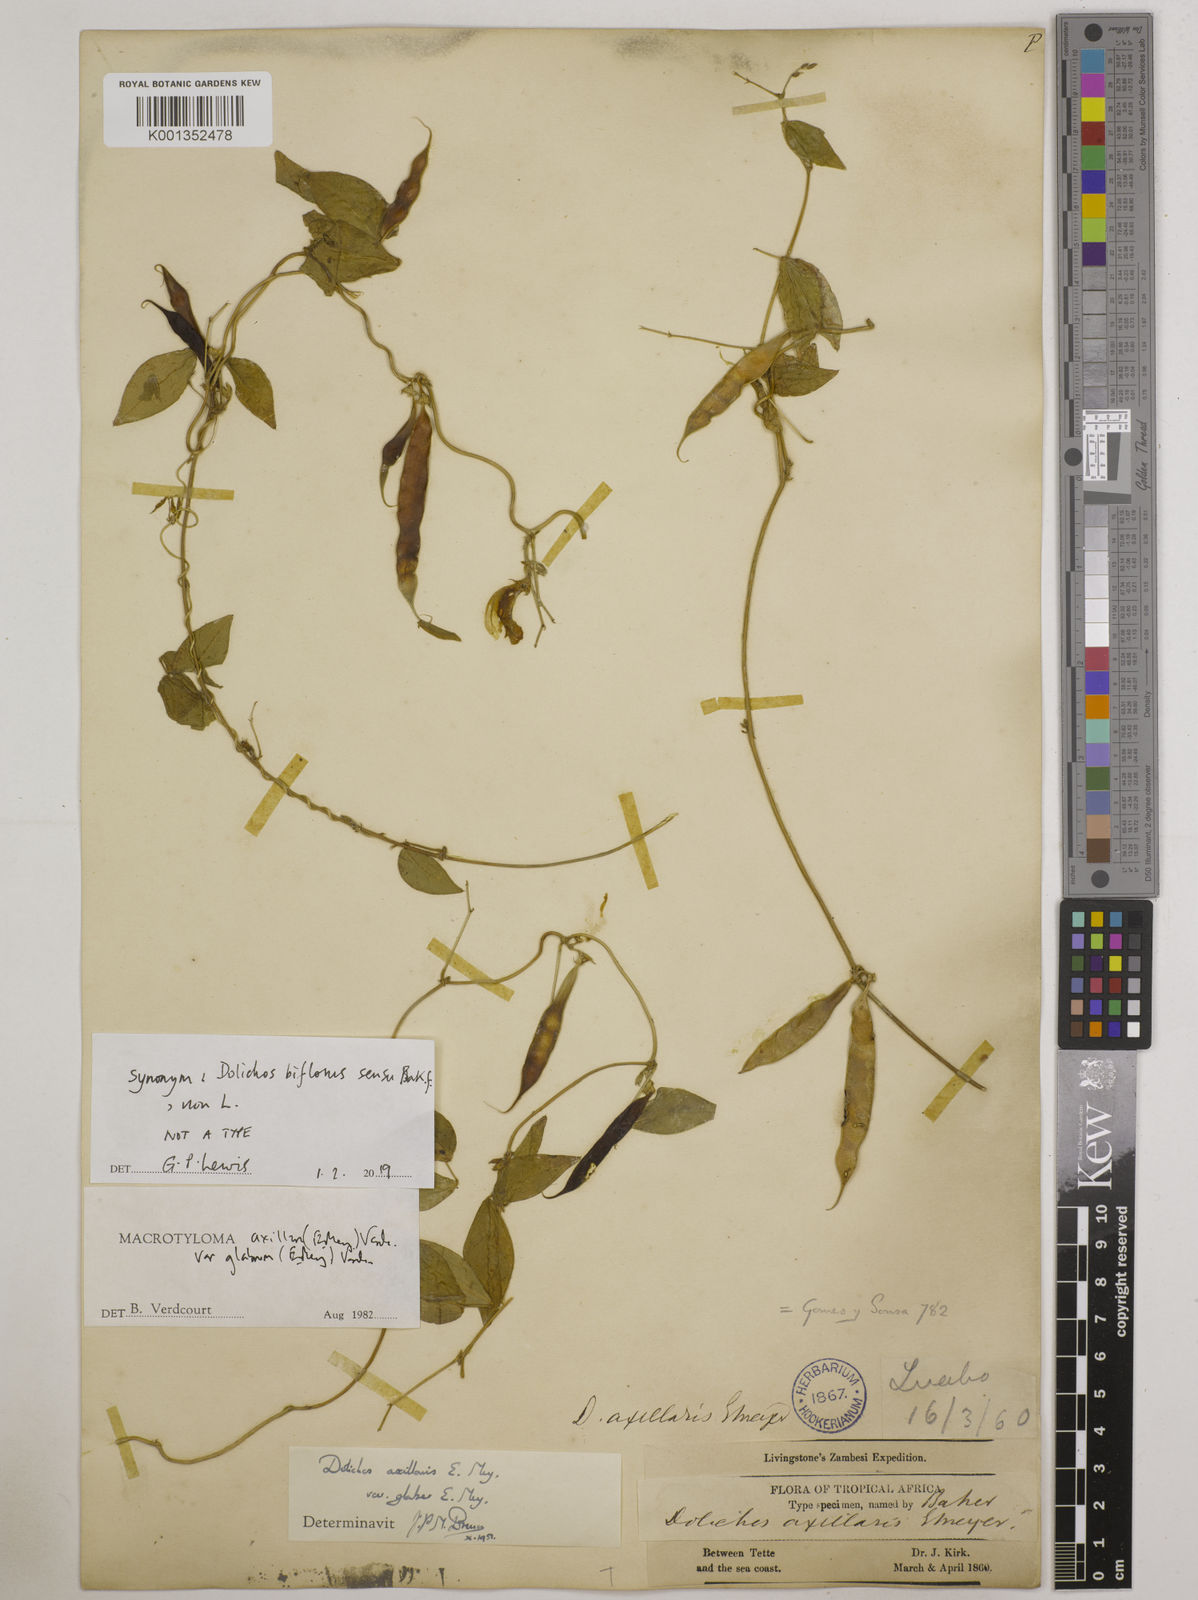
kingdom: Plantae
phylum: Tracheophyta
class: Magnoliopsida
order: Fabales
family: Fabaceae
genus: Macrotyloma
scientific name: Macrotyloma
